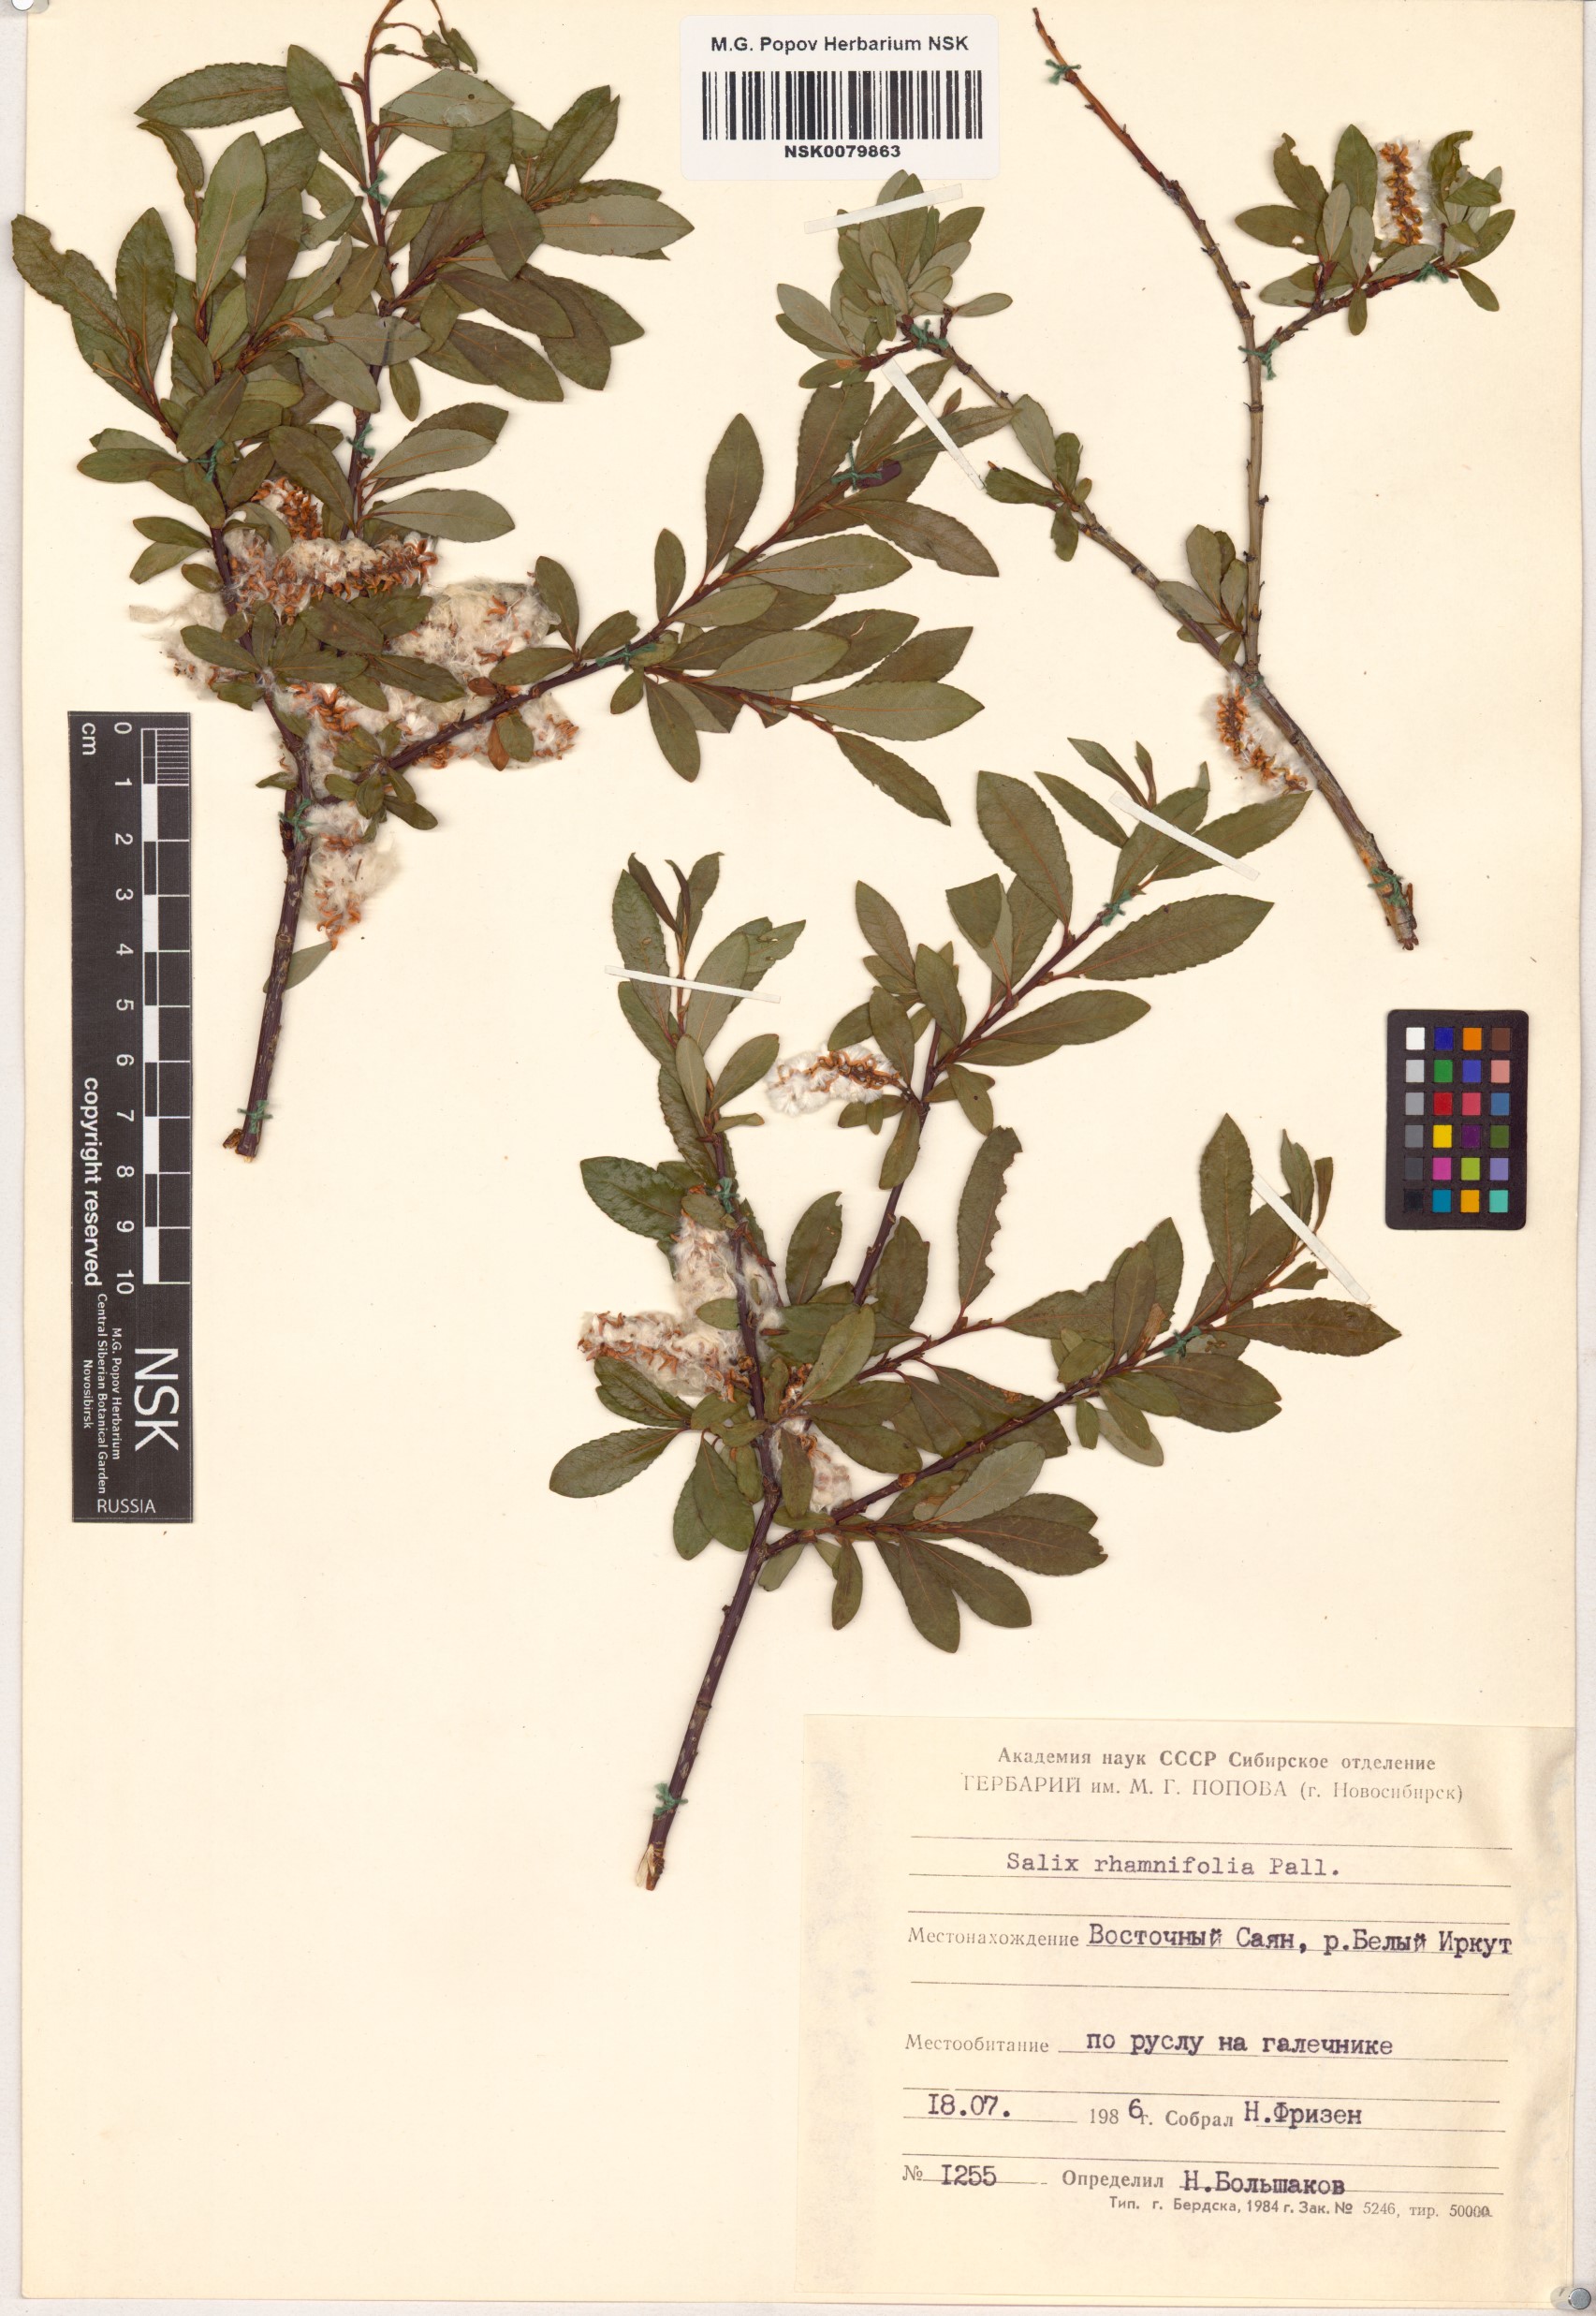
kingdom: Plantae
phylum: Tracheophyta
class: Magnoliopsida
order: Malpighiales
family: Salicaceae
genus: Salix
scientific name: Salix rhamnifolia
